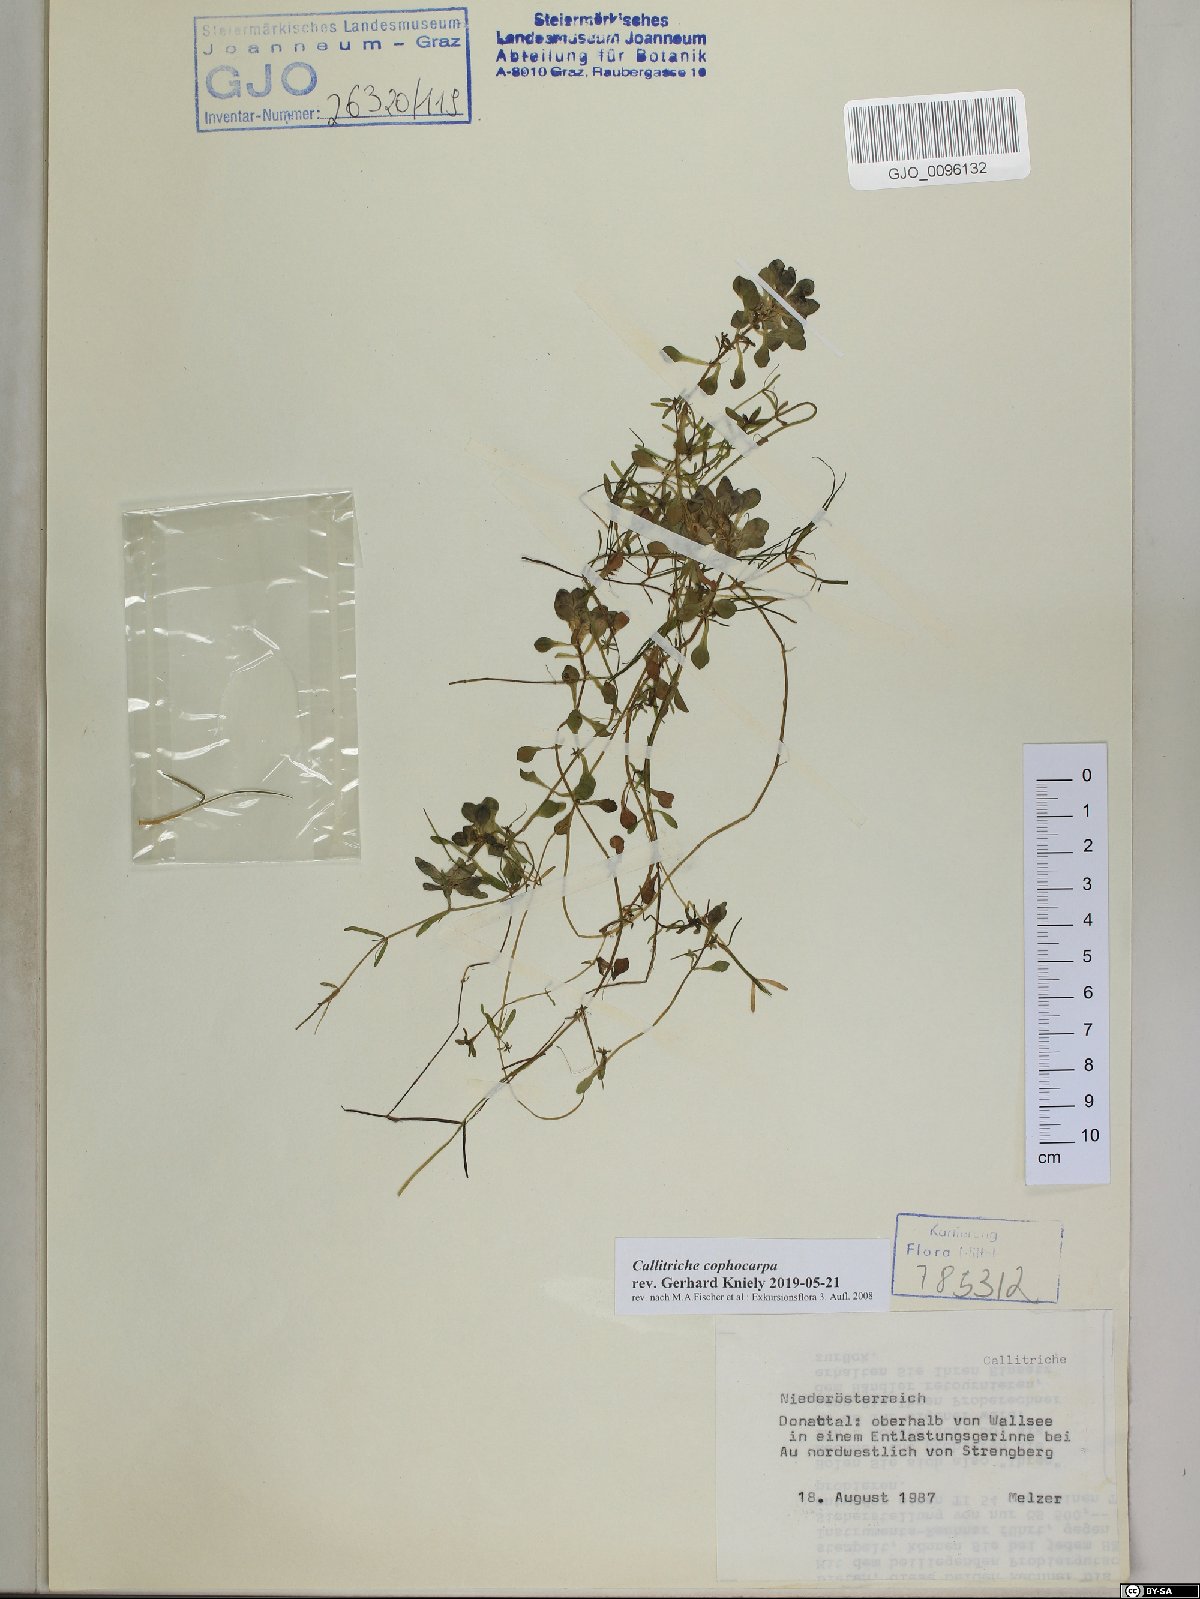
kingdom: Plantae
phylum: Tracheophyta
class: Magnoliopsida
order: Lamiales
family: Plantaginaceae
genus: Callitriche
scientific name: Callitriche cophocarpa
